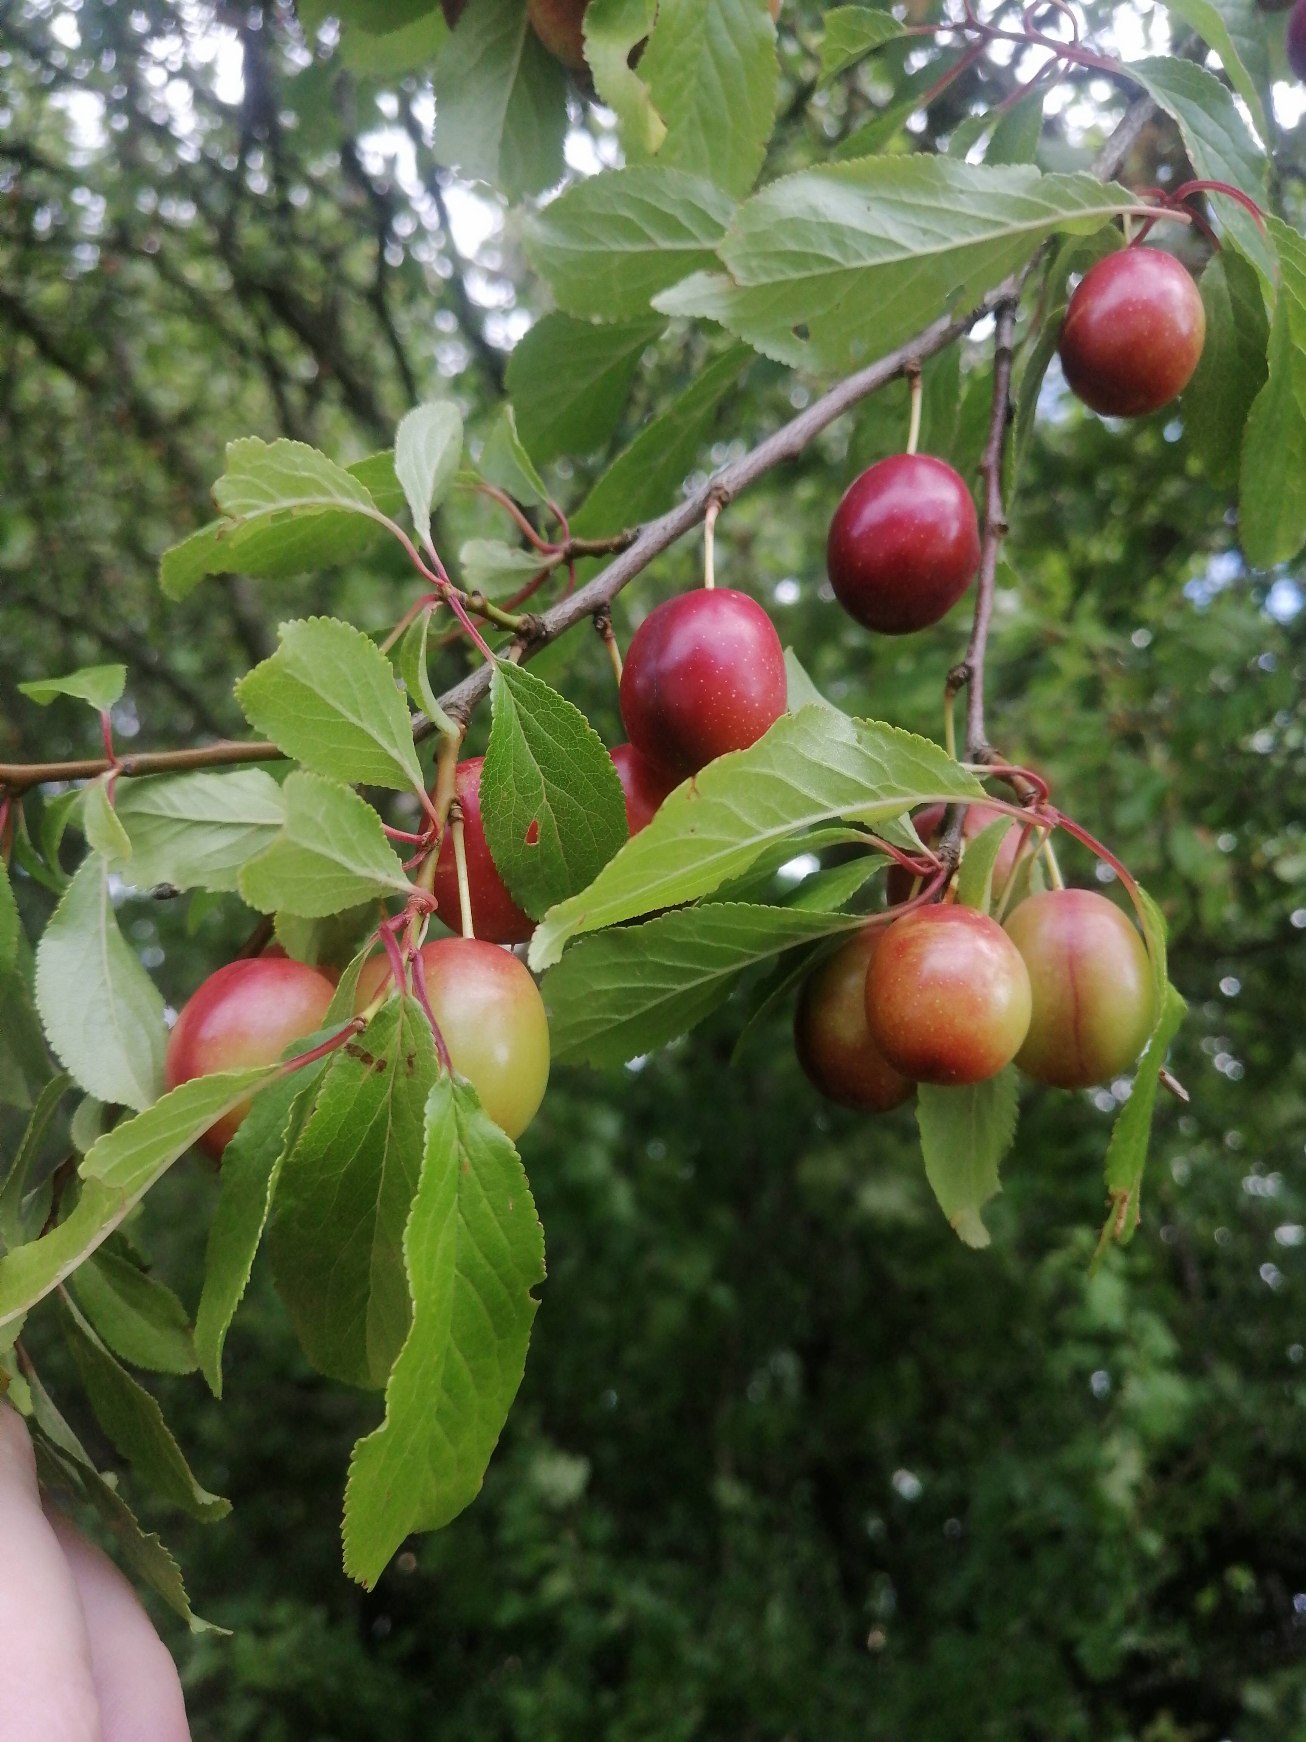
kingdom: Plantae
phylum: Tracheophyta
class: Magnoliopsida
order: Rosales
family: Rosaceae
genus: Prunus
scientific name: Prunus cerasifera
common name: Mirabel
